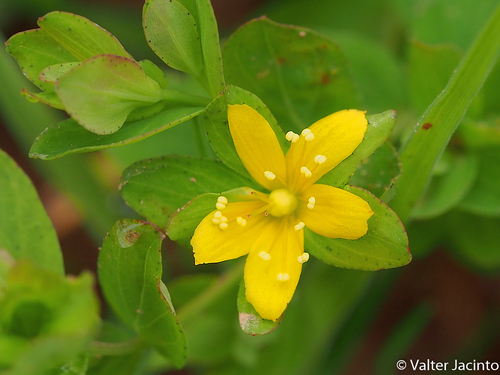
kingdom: Plantae
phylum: Tracheophyta
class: Magnoliopsida
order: Malpighiales
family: Hypericaceae
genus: Hypericum
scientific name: Hypericum humifusum
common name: Trailing st. john's-wort
